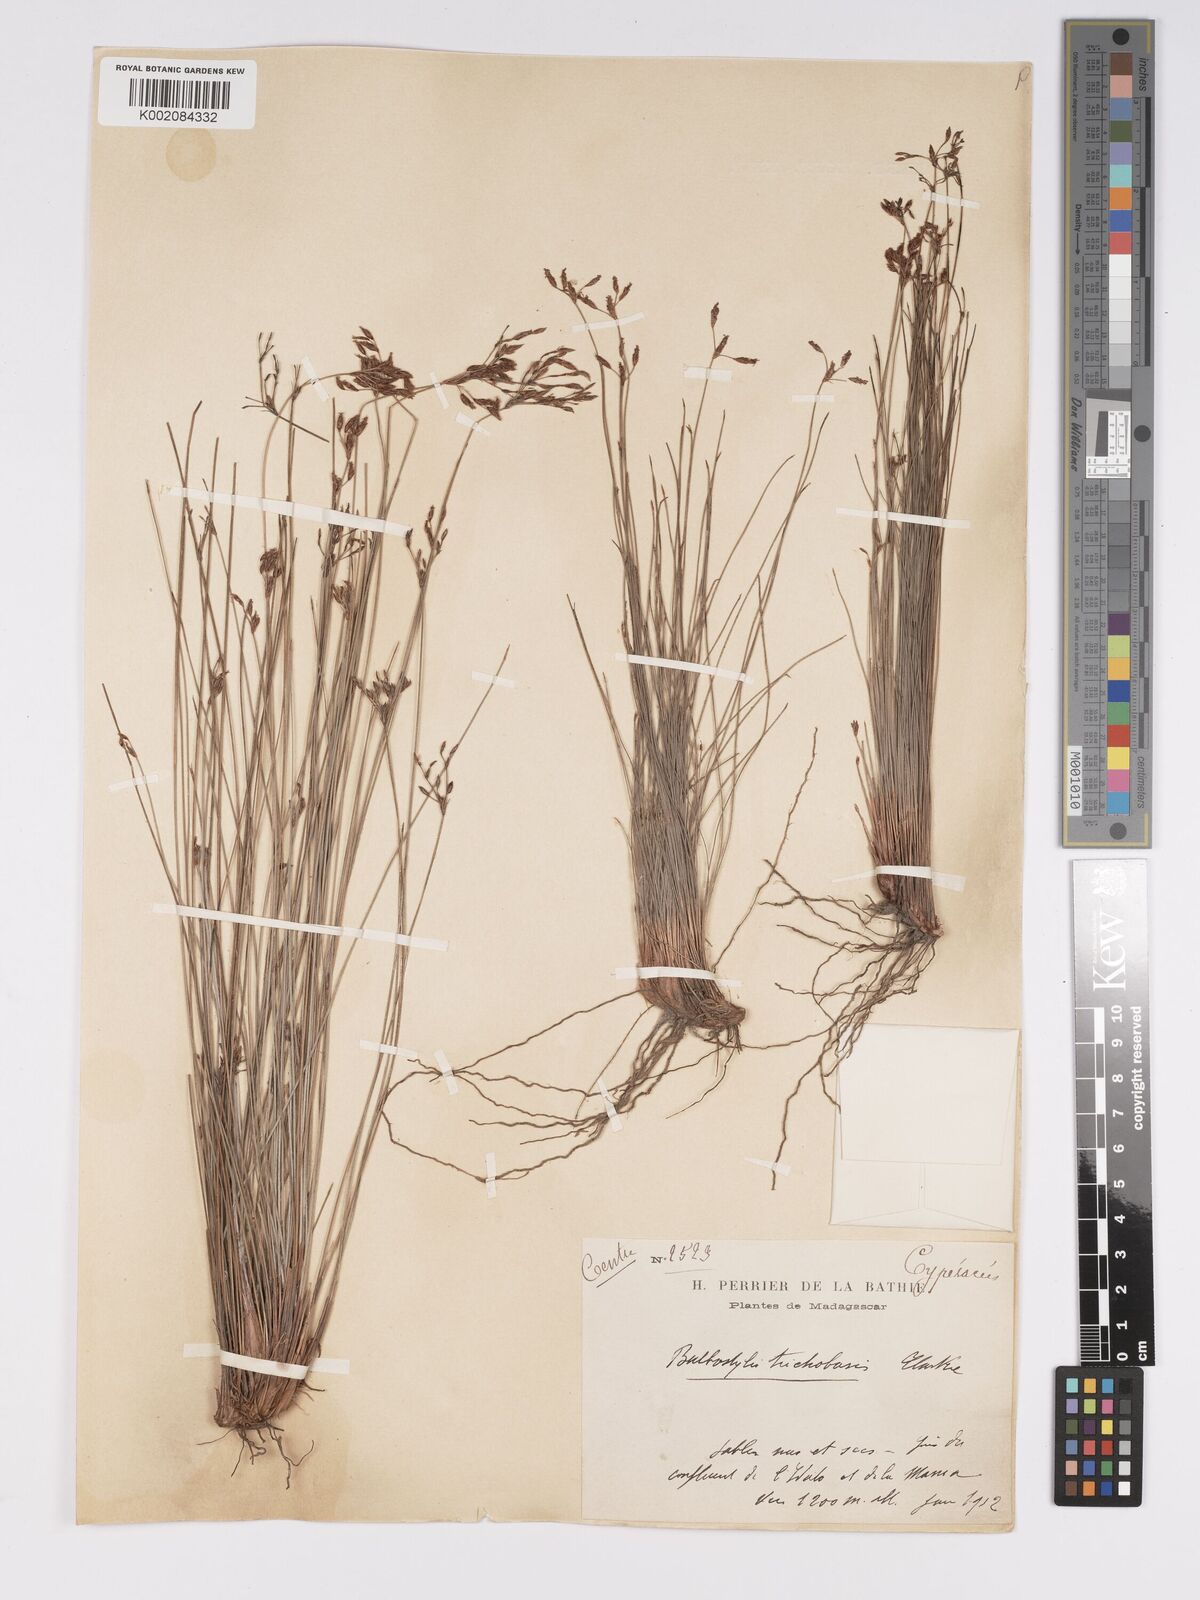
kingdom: Plantae
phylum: Tracheophyta
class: Liliopsida
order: Poales
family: Cyperaceae
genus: Bulbostylis
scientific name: Bulbostylis trichobasis
